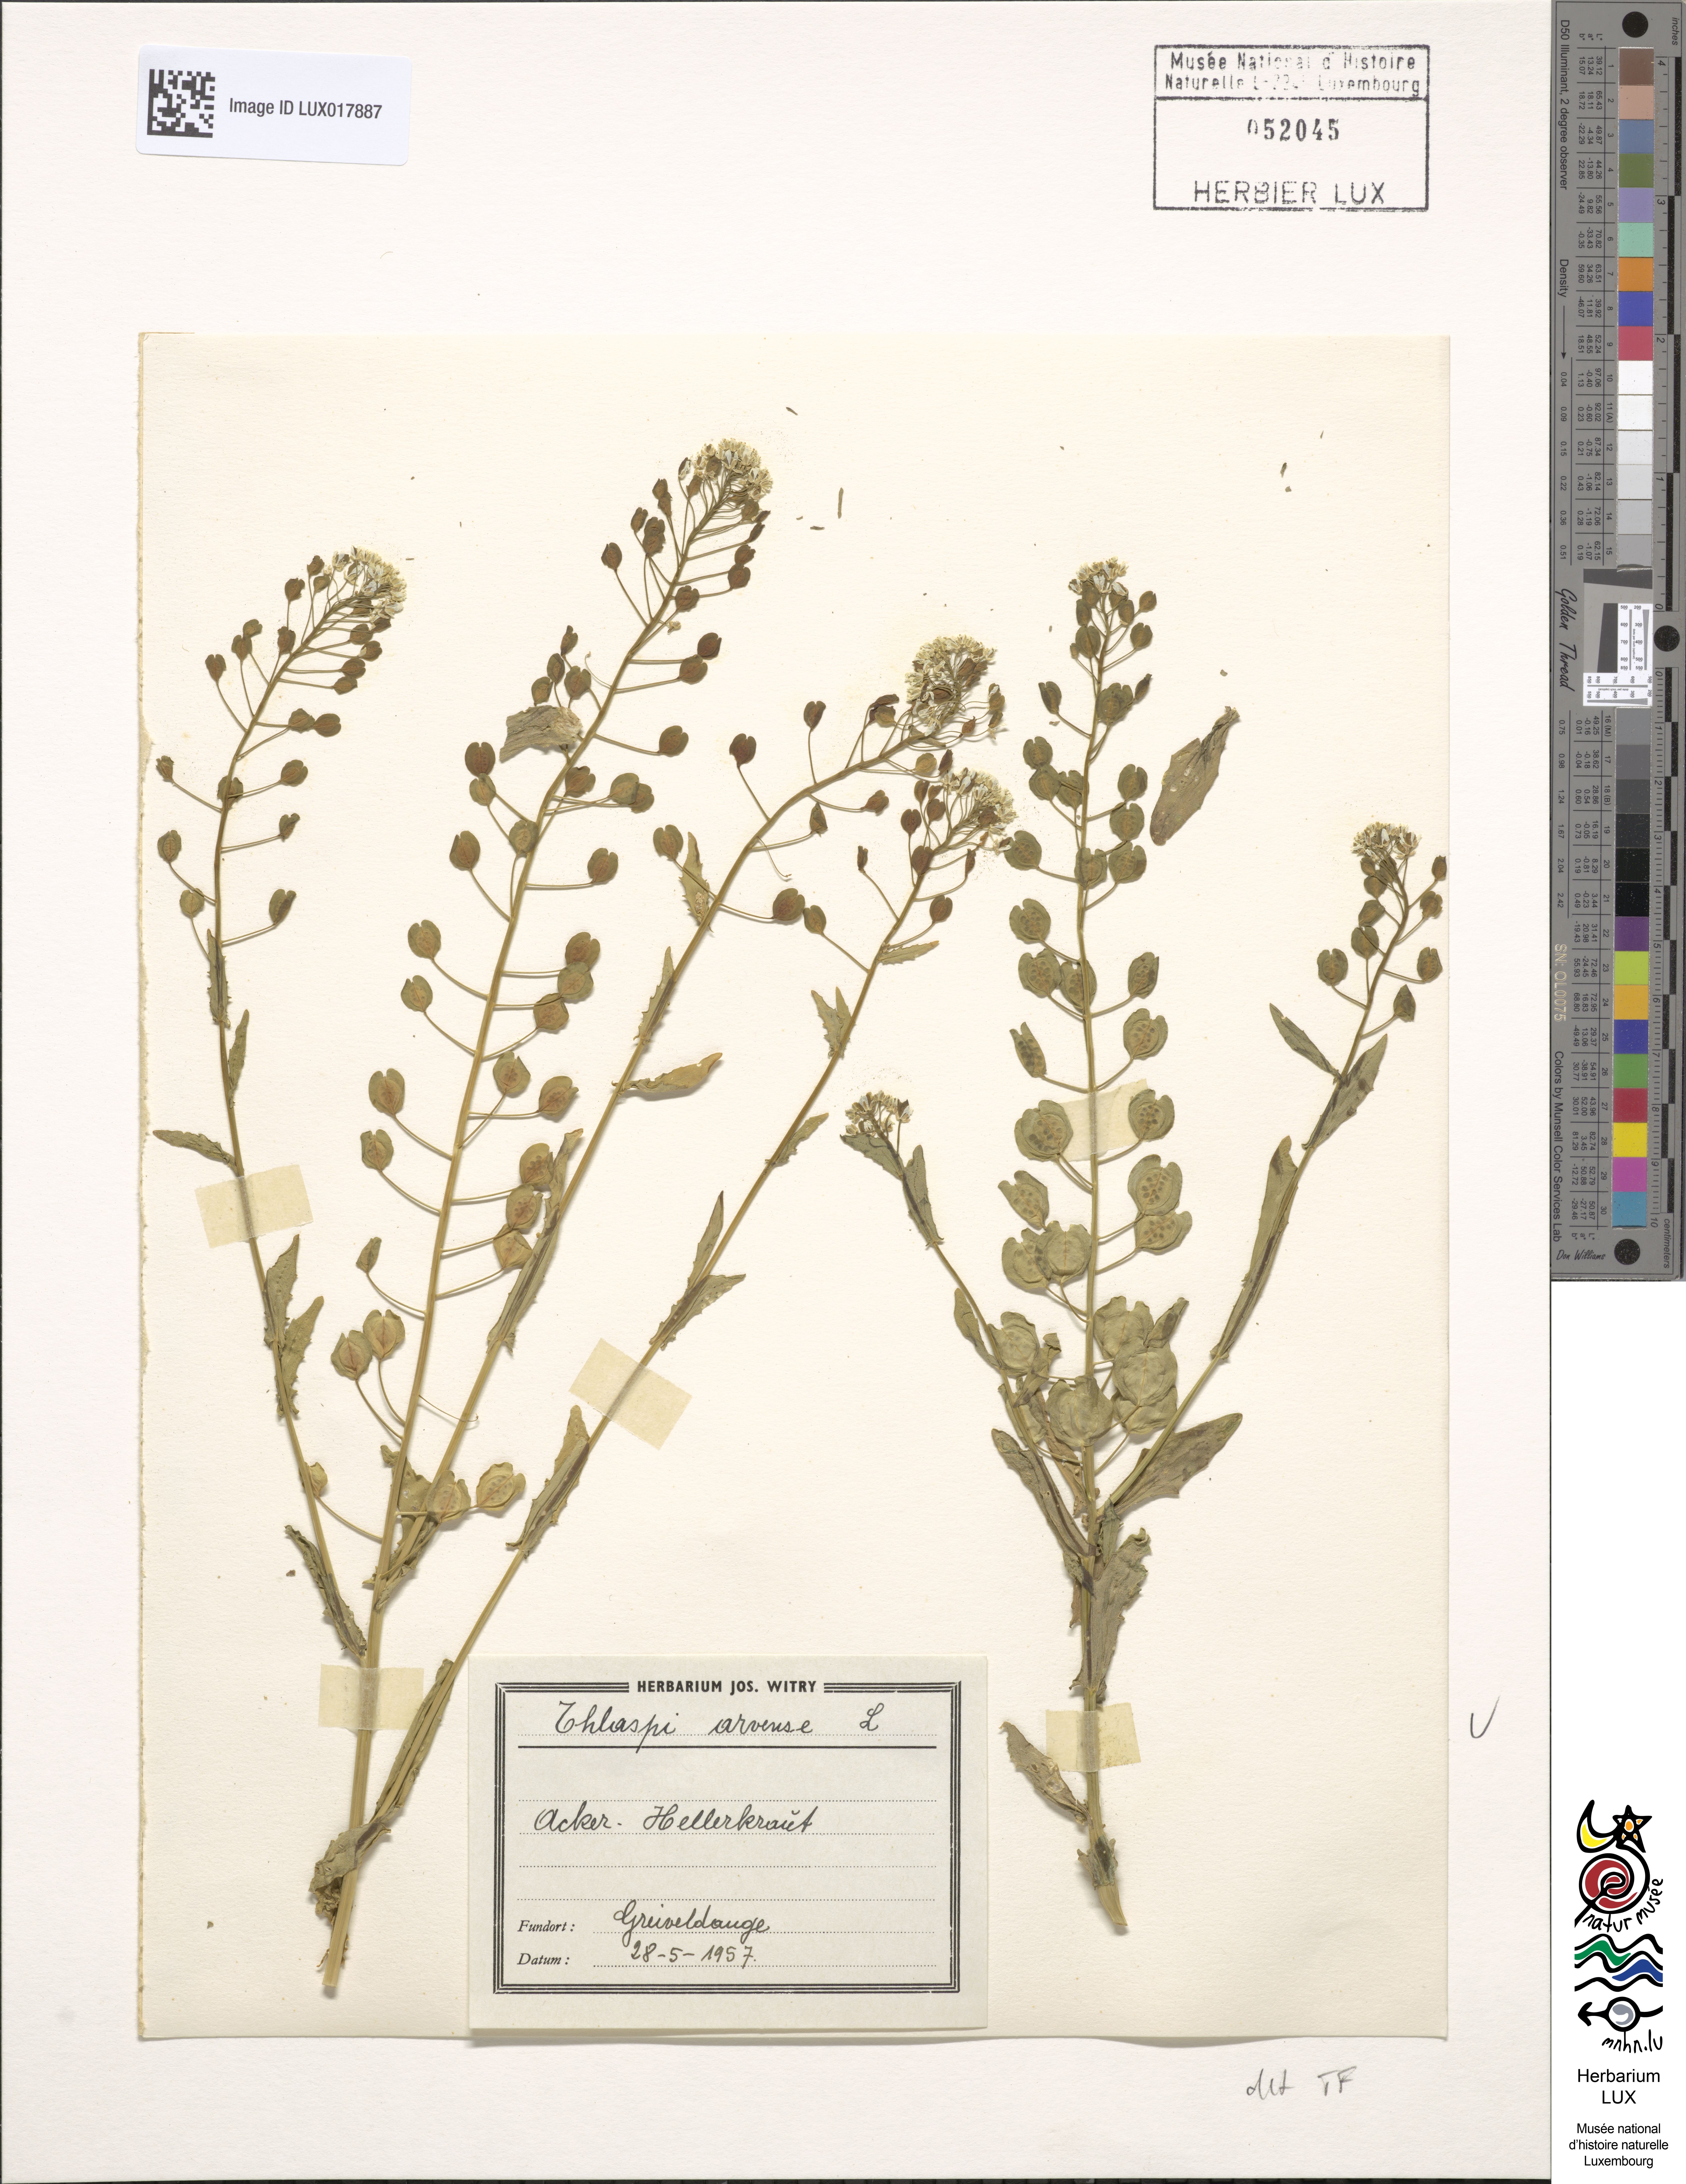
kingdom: Plantae
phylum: Tracheophyta
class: Magnoliopsida
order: Brassicales
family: Brassicaceae
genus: Thlaspi
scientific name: Thlaspi arvense
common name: Field pennycress
